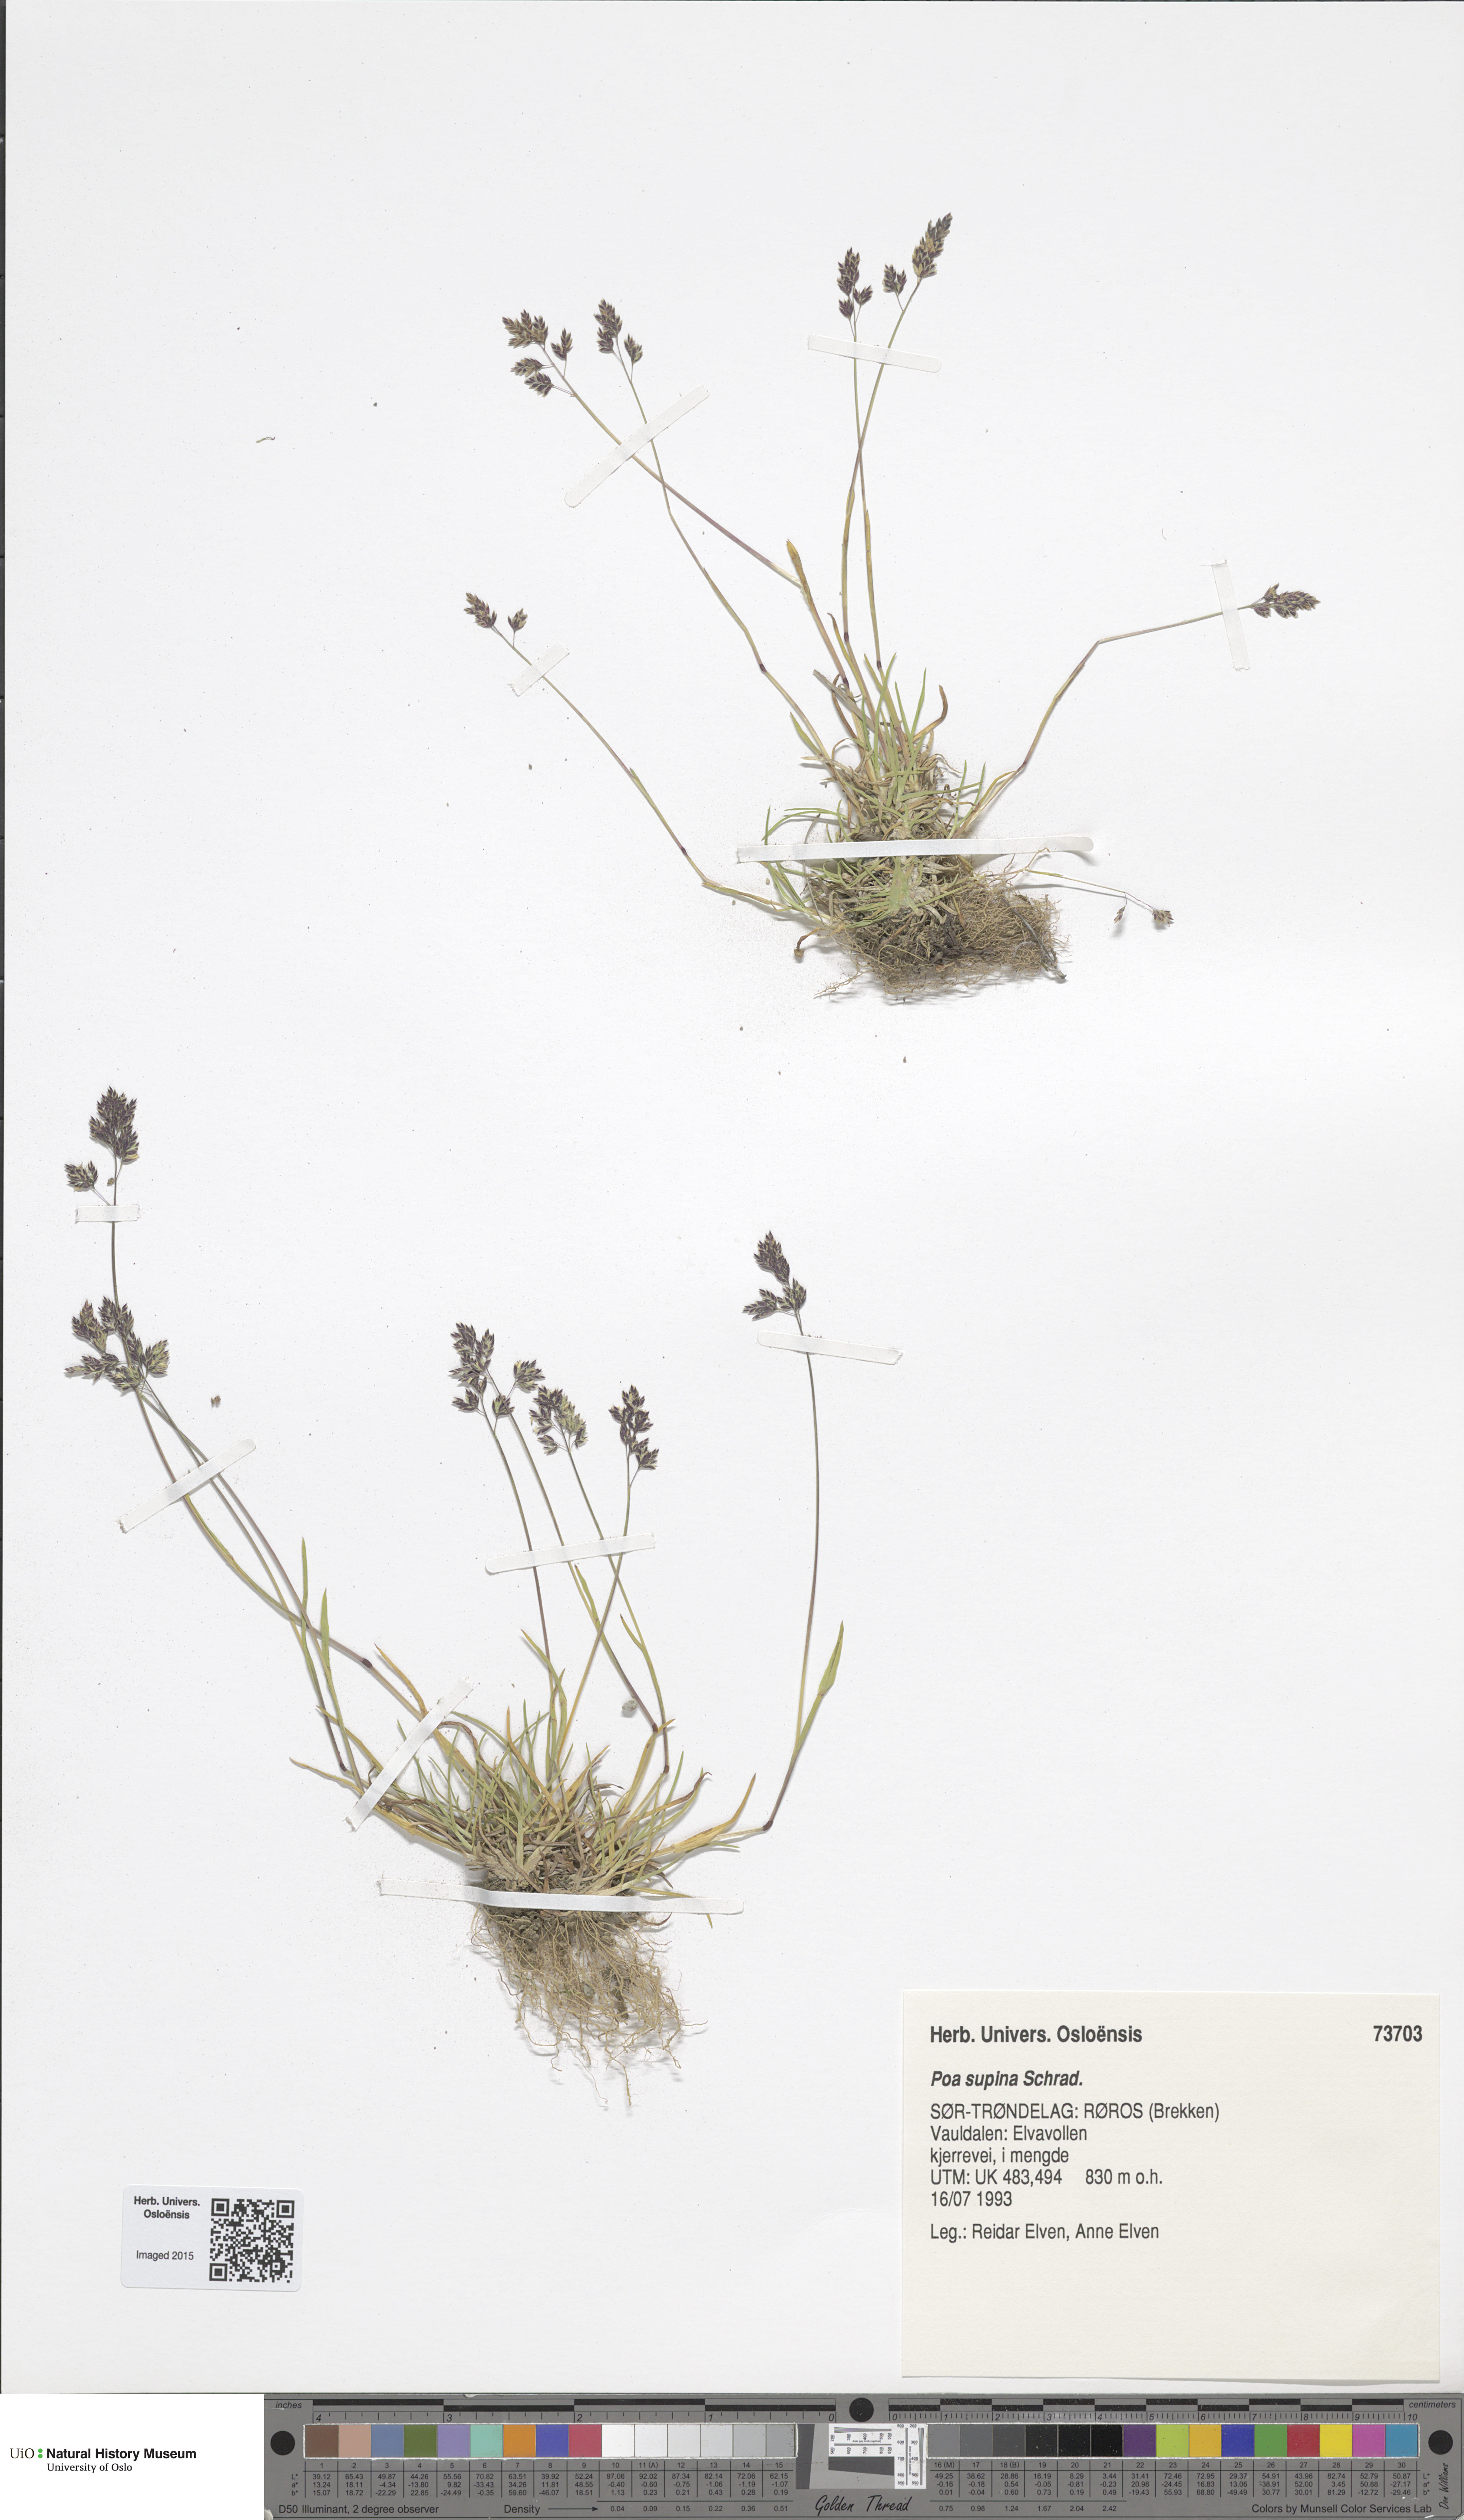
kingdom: Plantae
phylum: Tracheophyta
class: Liliopsida
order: Poales
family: Poaceae
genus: Poa
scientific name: Poa supina
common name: Supina bluegrass
